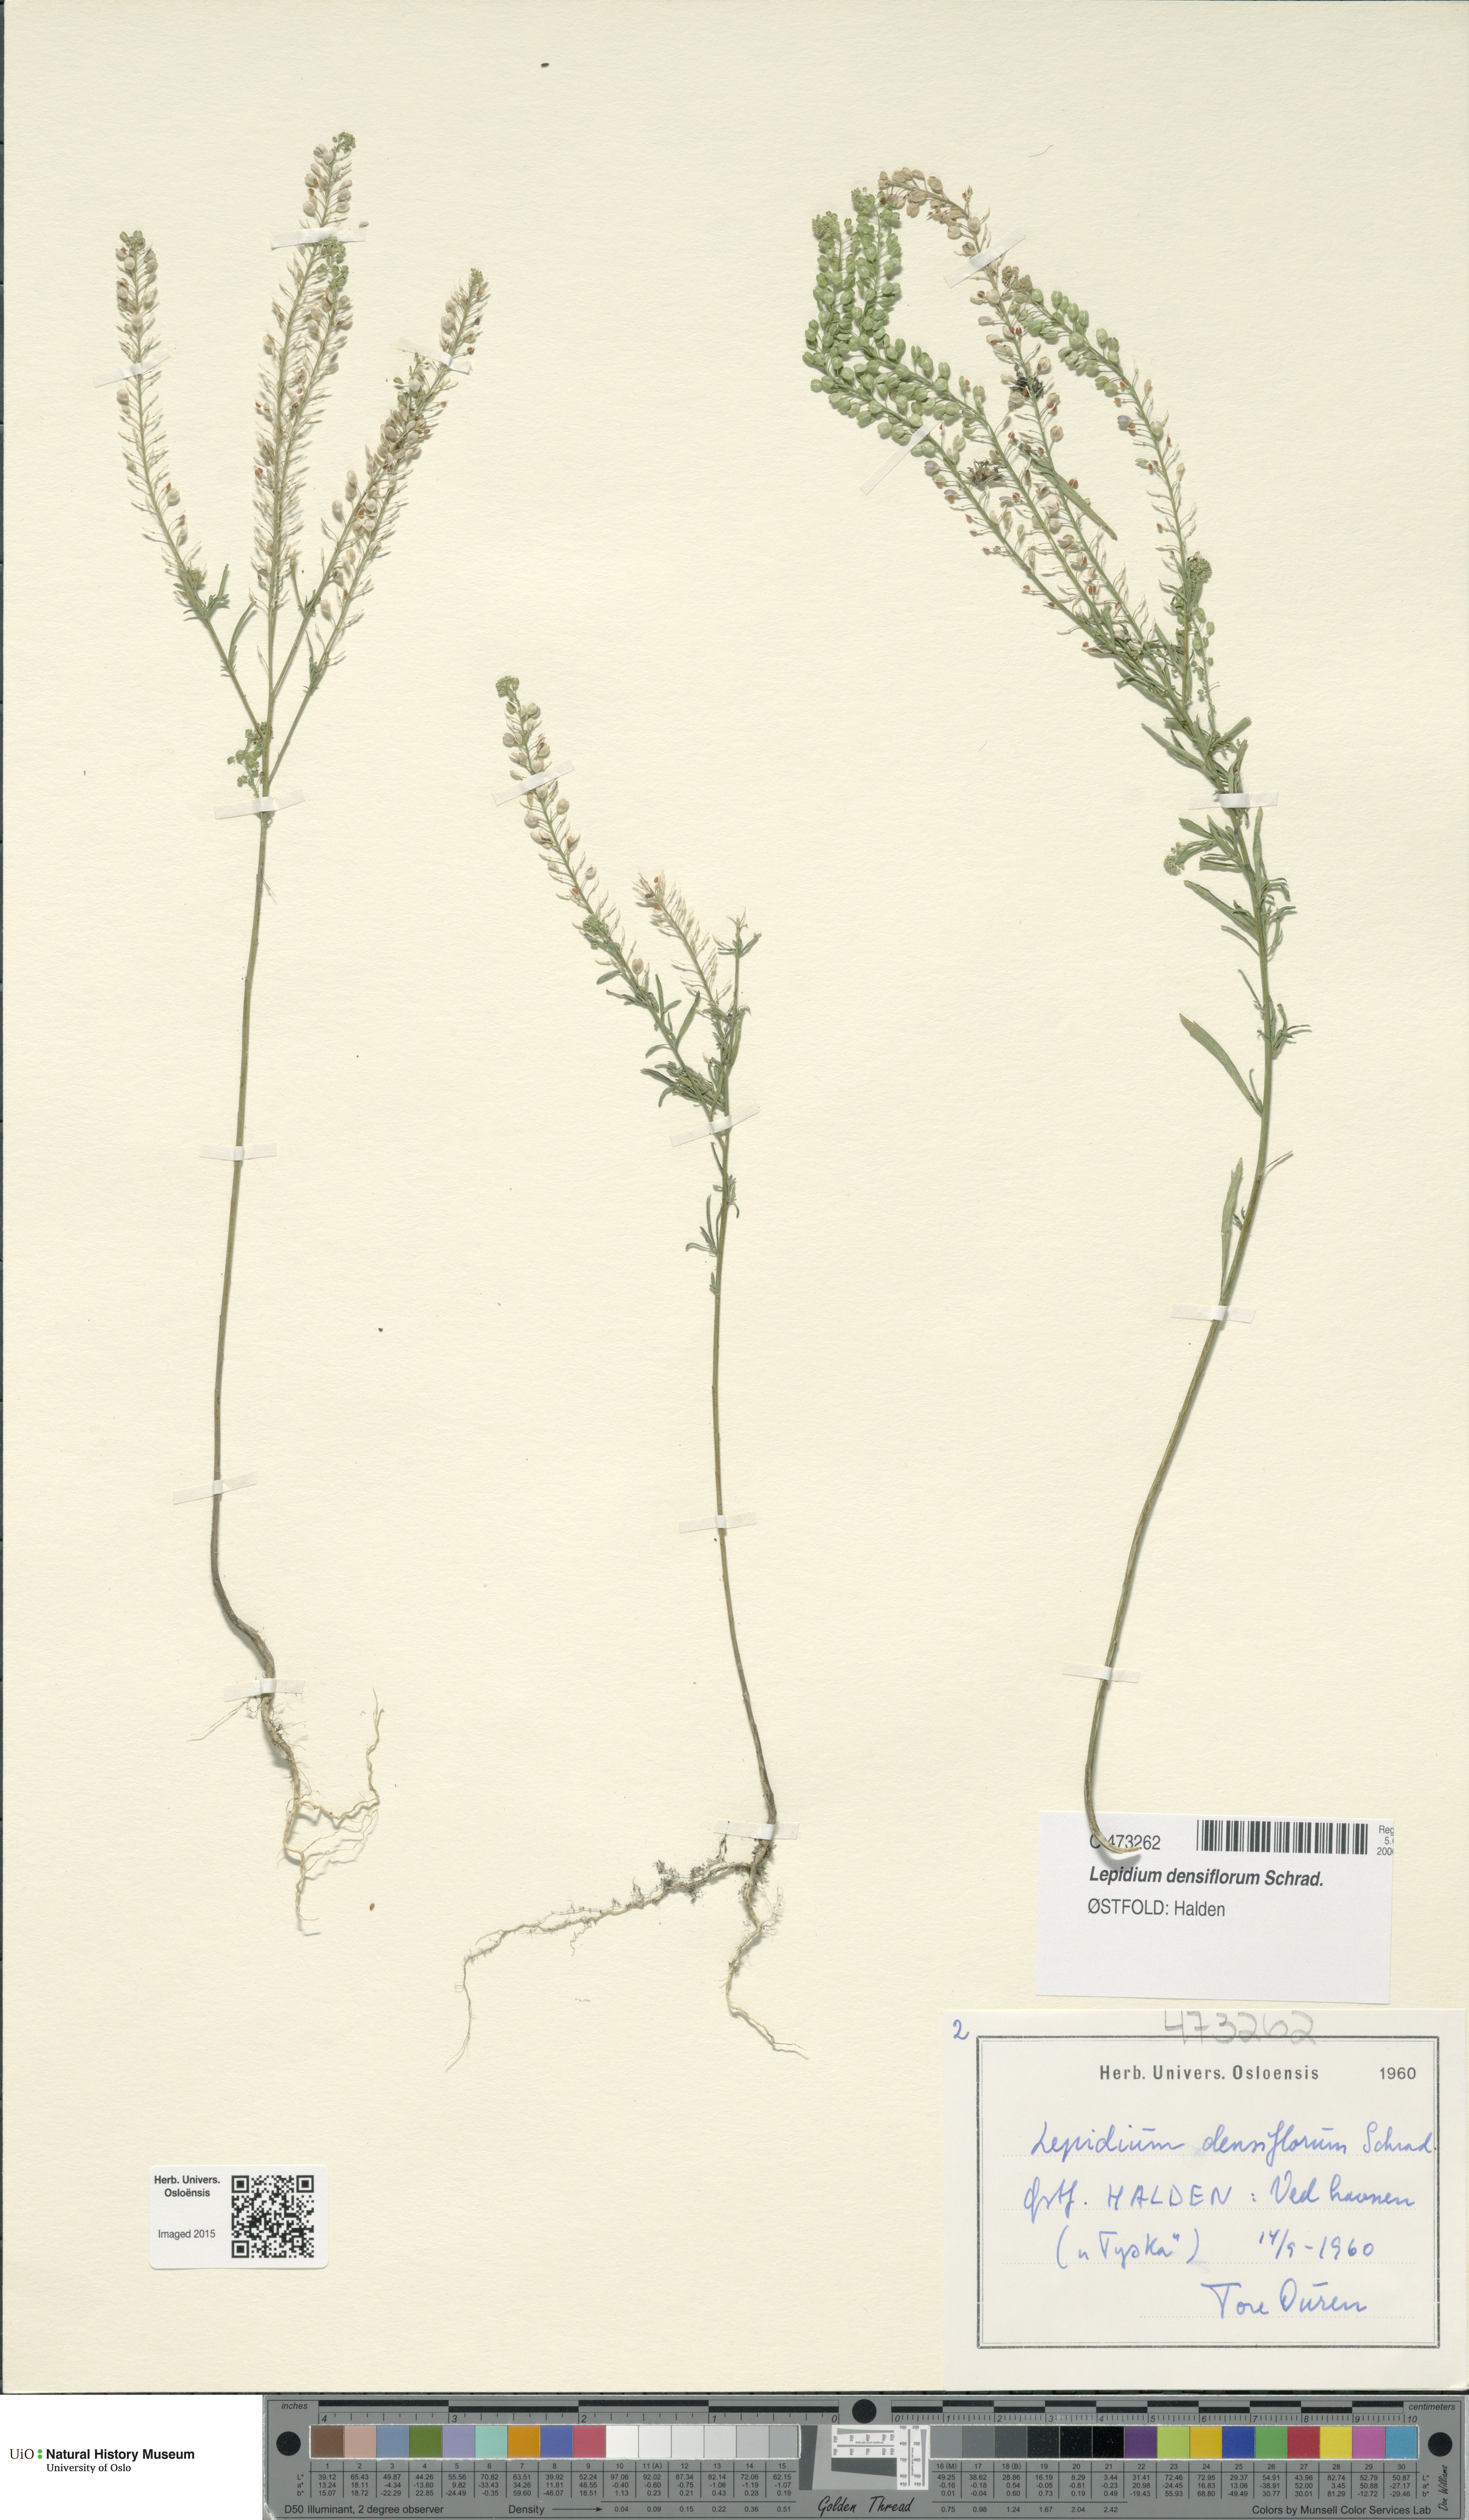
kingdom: Plantae
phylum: Tracheophyta
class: Magnoliopsida
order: Brassicales
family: Brassicaceae
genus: Lepidium
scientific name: Lepidium densiflorum
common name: Miner's pepperwort
